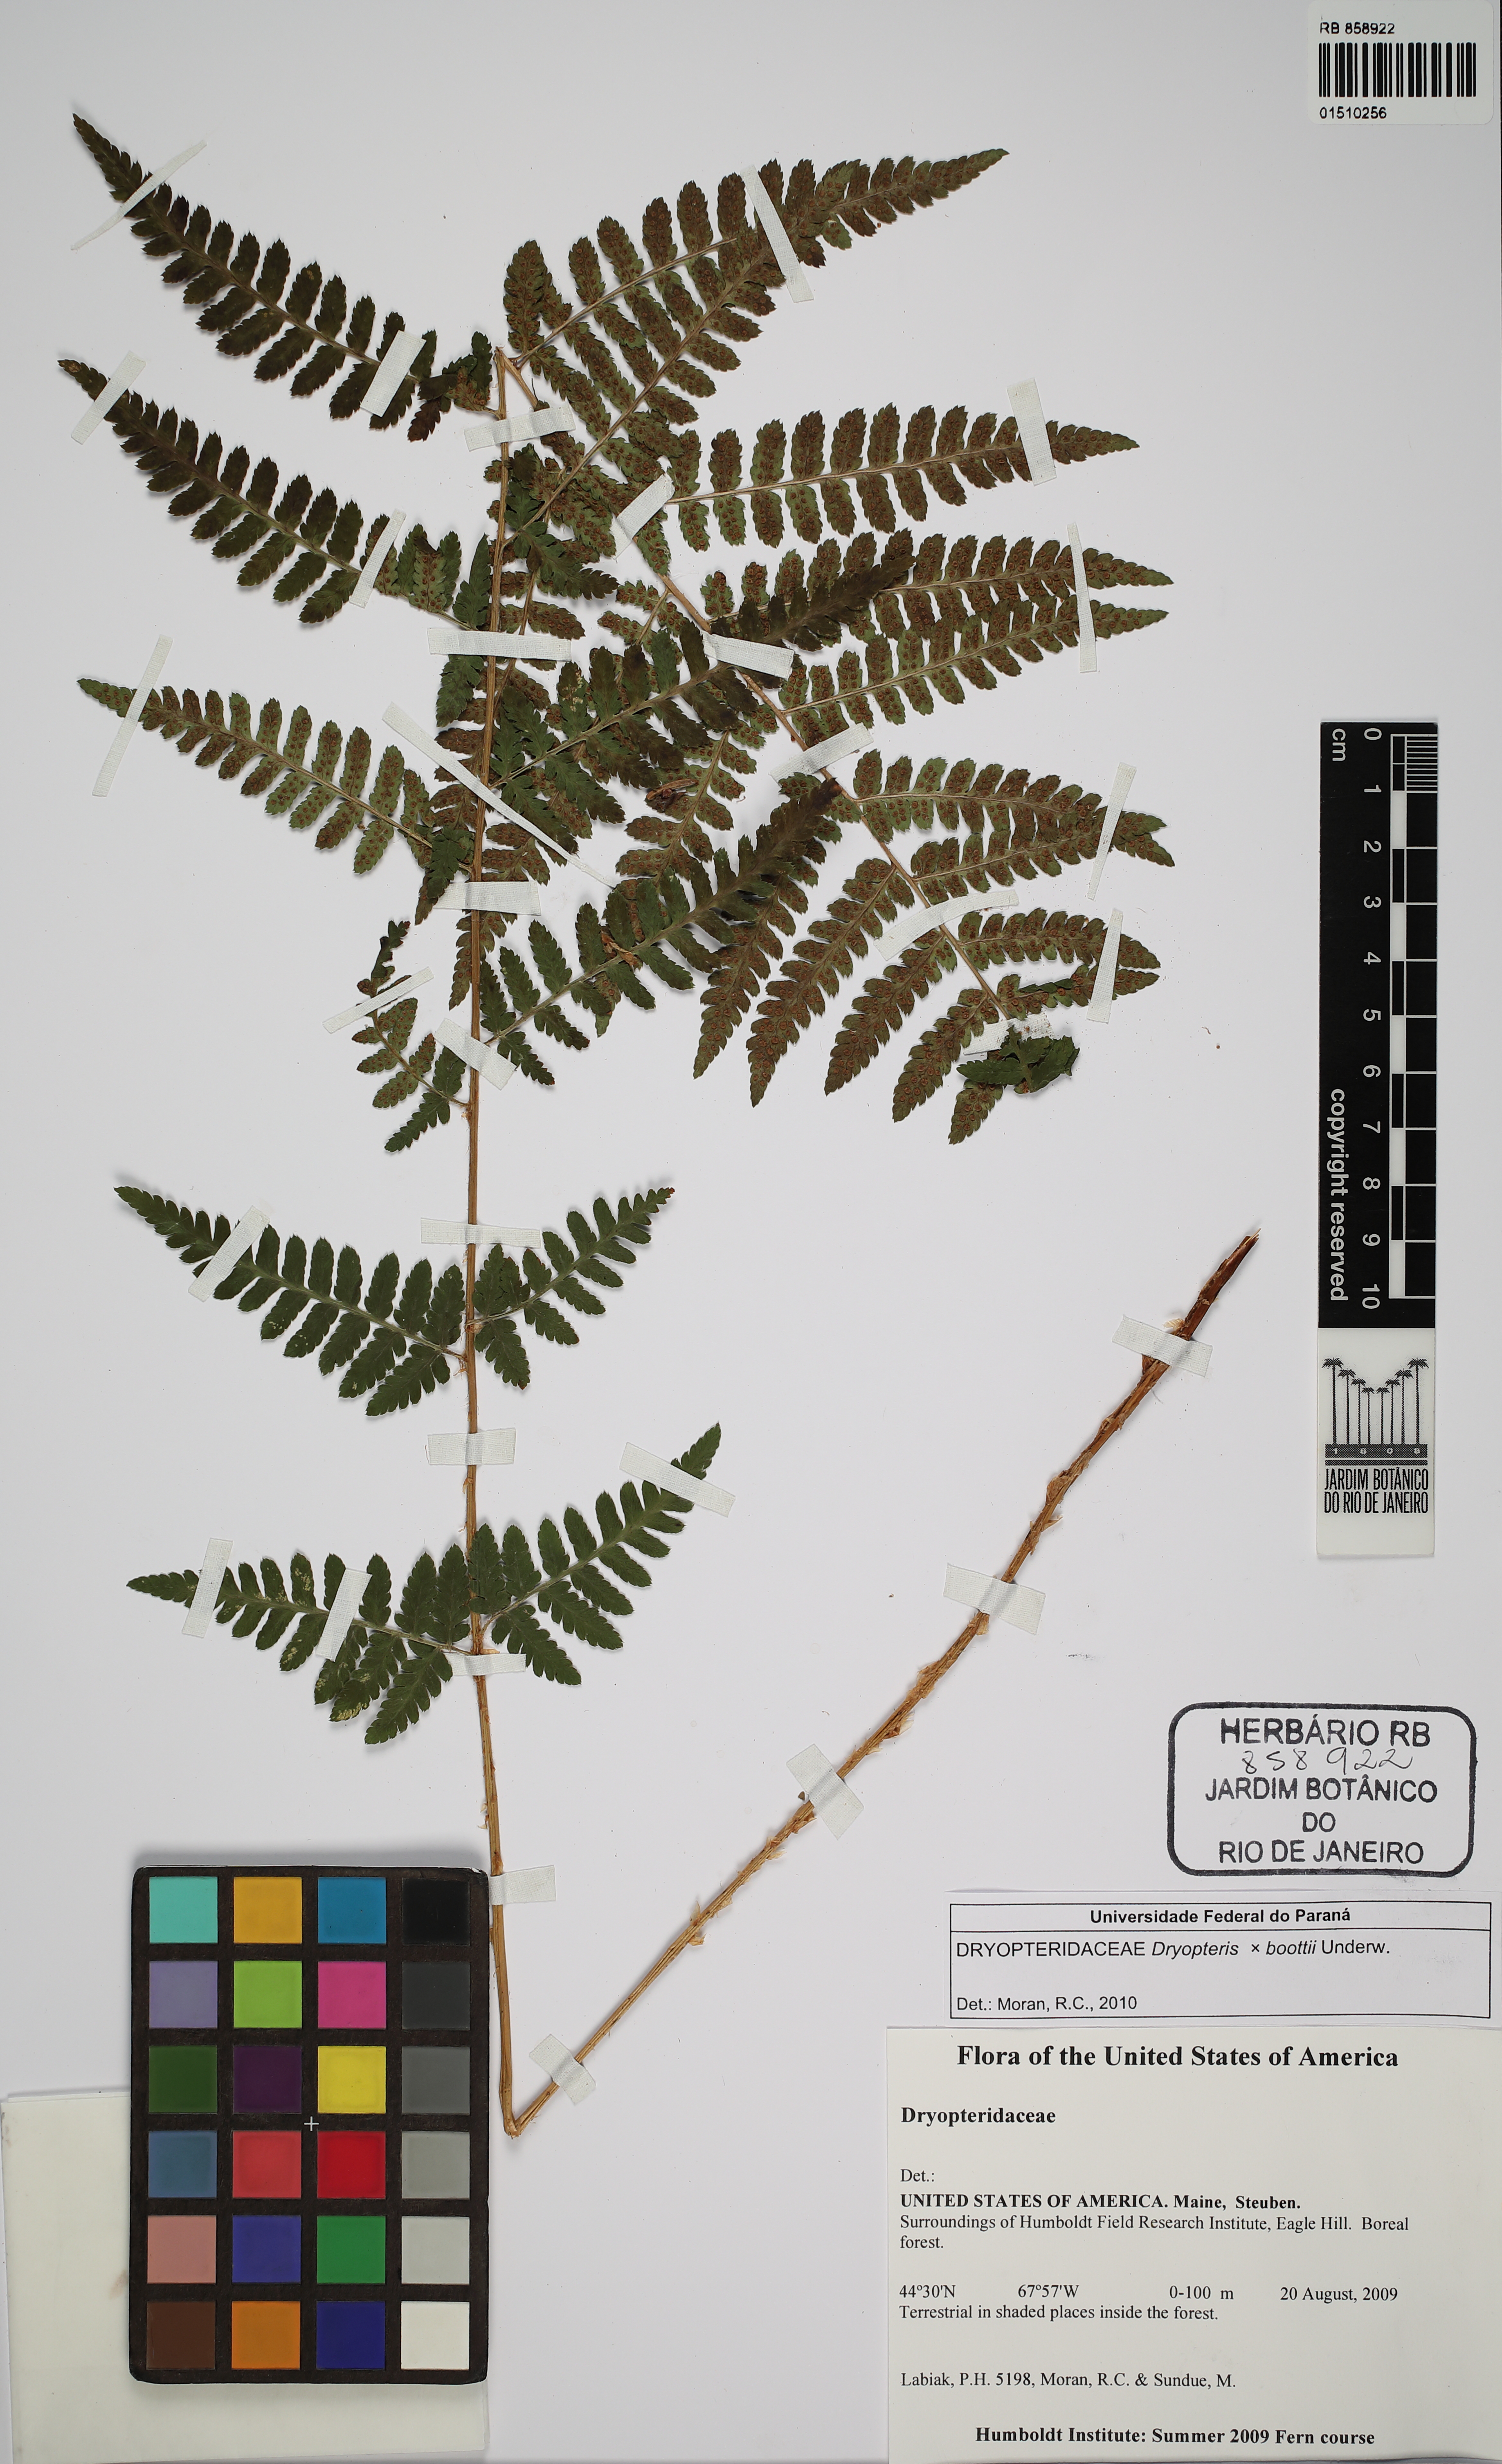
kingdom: Plantae
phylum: Tracheophyta
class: Polypodiopsida
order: Polypodiales
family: Dryopteridaceae
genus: Dryopteris
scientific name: Dryopteris boottii
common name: Boott's fern
